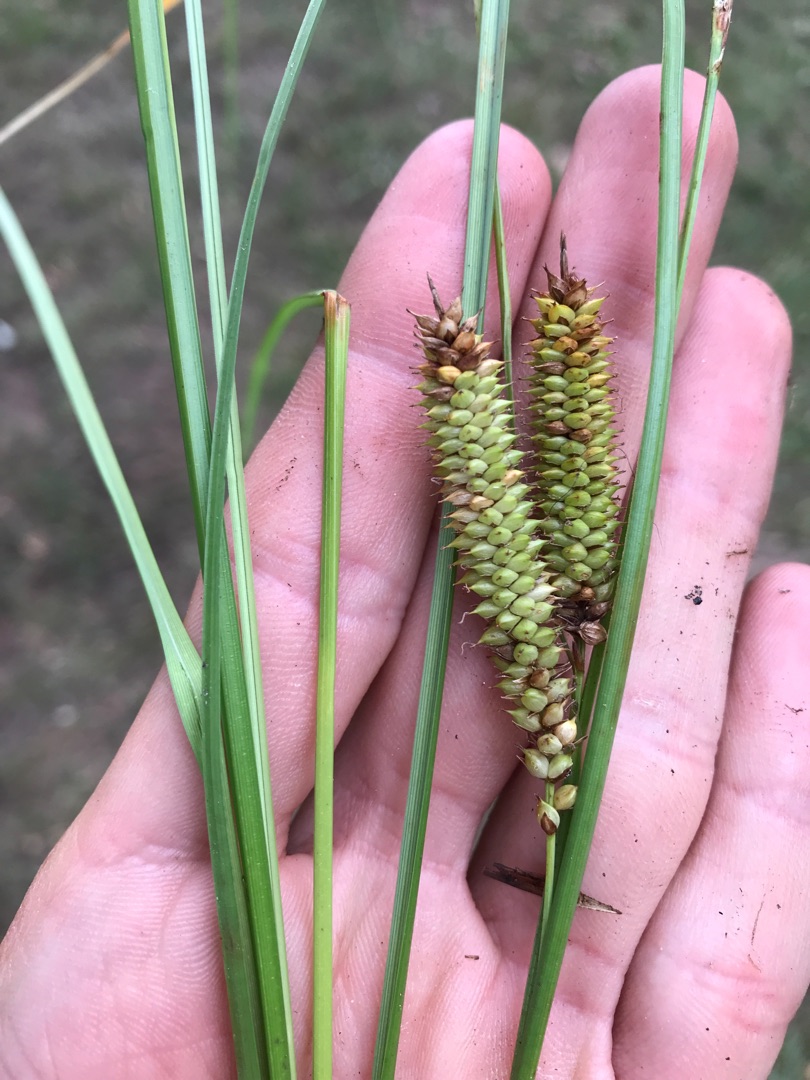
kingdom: Plantae
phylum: Tracheophyta
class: Liliopsida
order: Poales
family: Cyperaceae
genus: Carex
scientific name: Carex rostrata
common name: Næb-star
